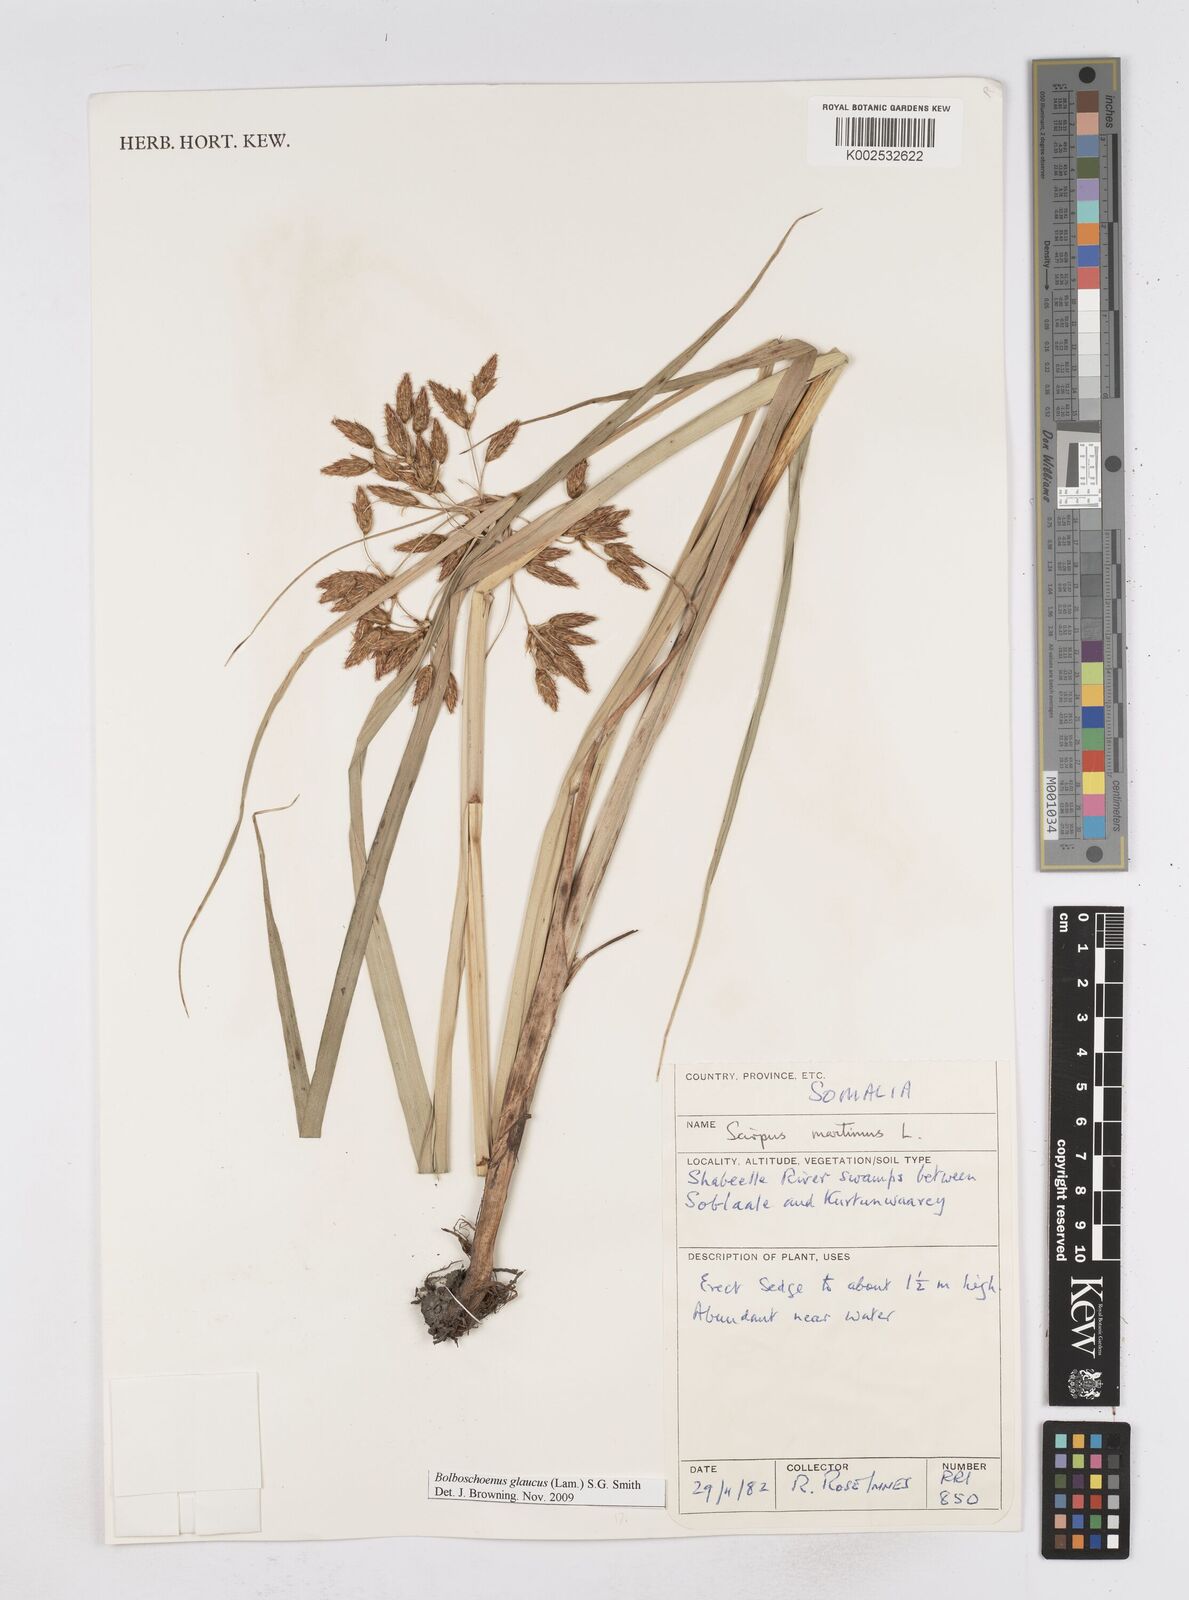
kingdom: Plantae
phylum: Tracheophyta
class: Liliopsida
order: Poales
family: Cyperaceae
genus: Bolboschoenus
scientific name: Bolboschoenus glaucus
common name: Tuberous bulrush
